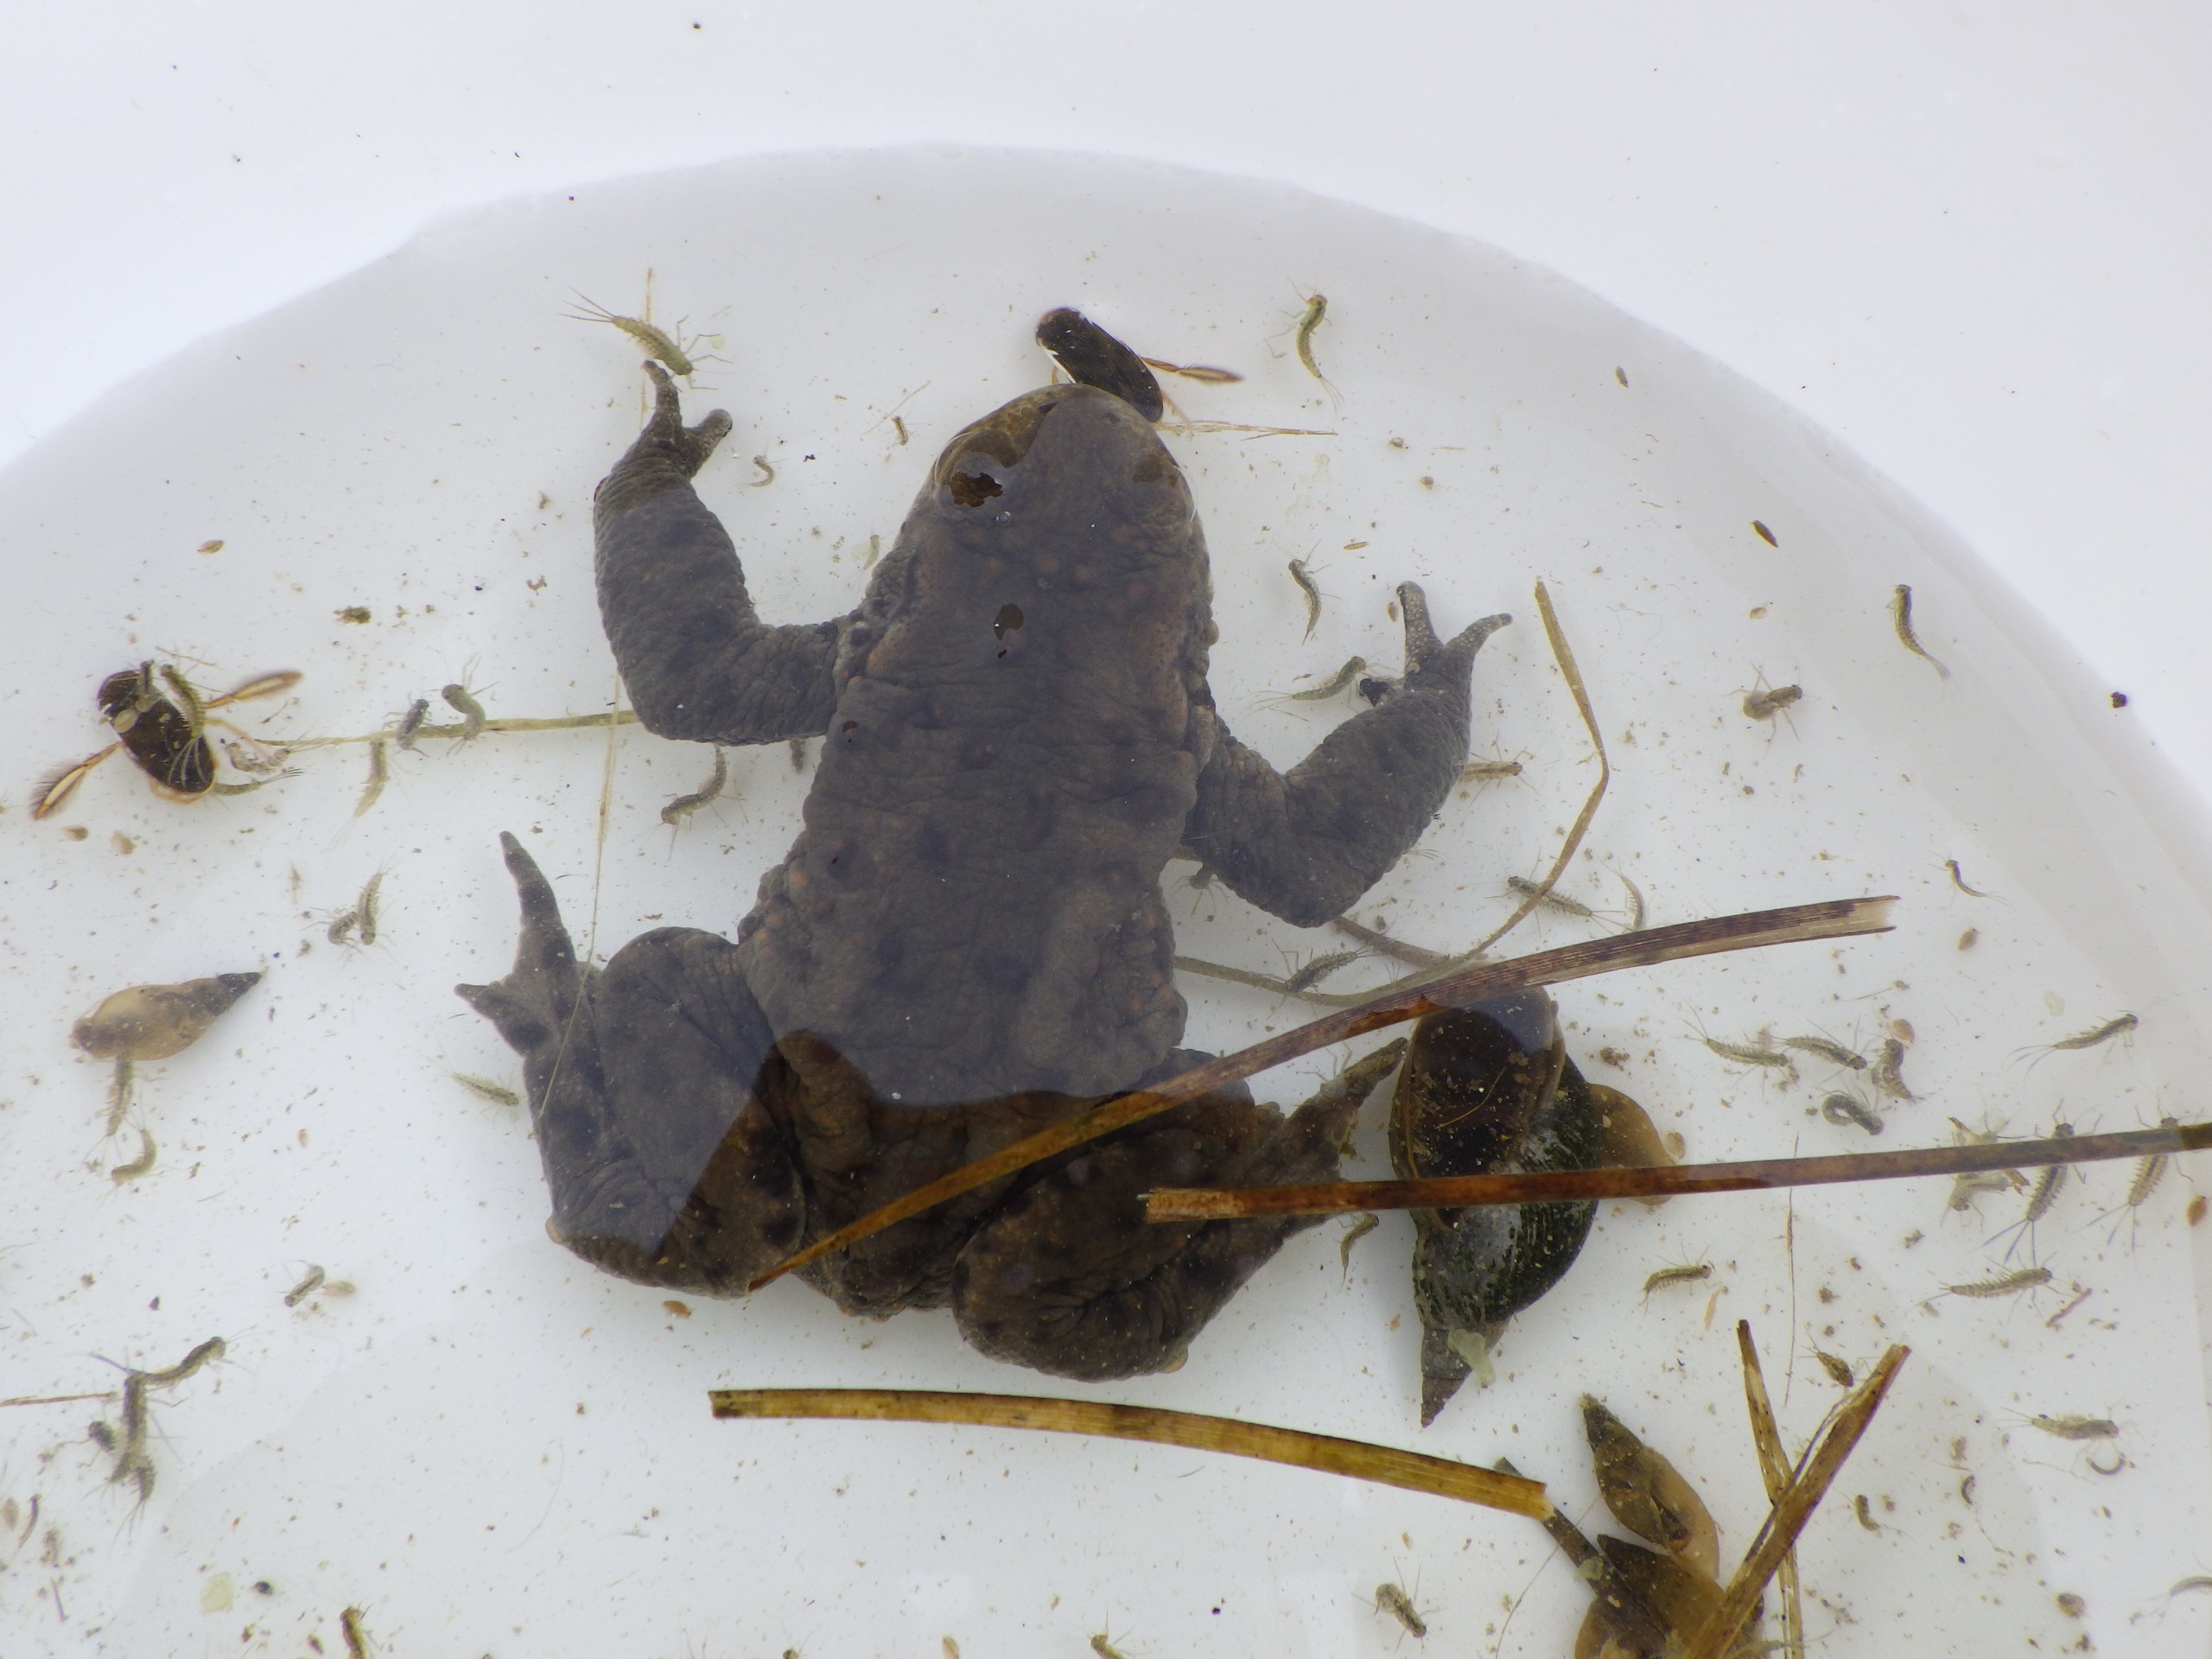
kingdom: Animalia
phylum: Chordata
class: Amphibia
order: Anura
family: Bufonidae
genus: Bufo
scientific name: Bufo bufo
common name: Skrubtudse
